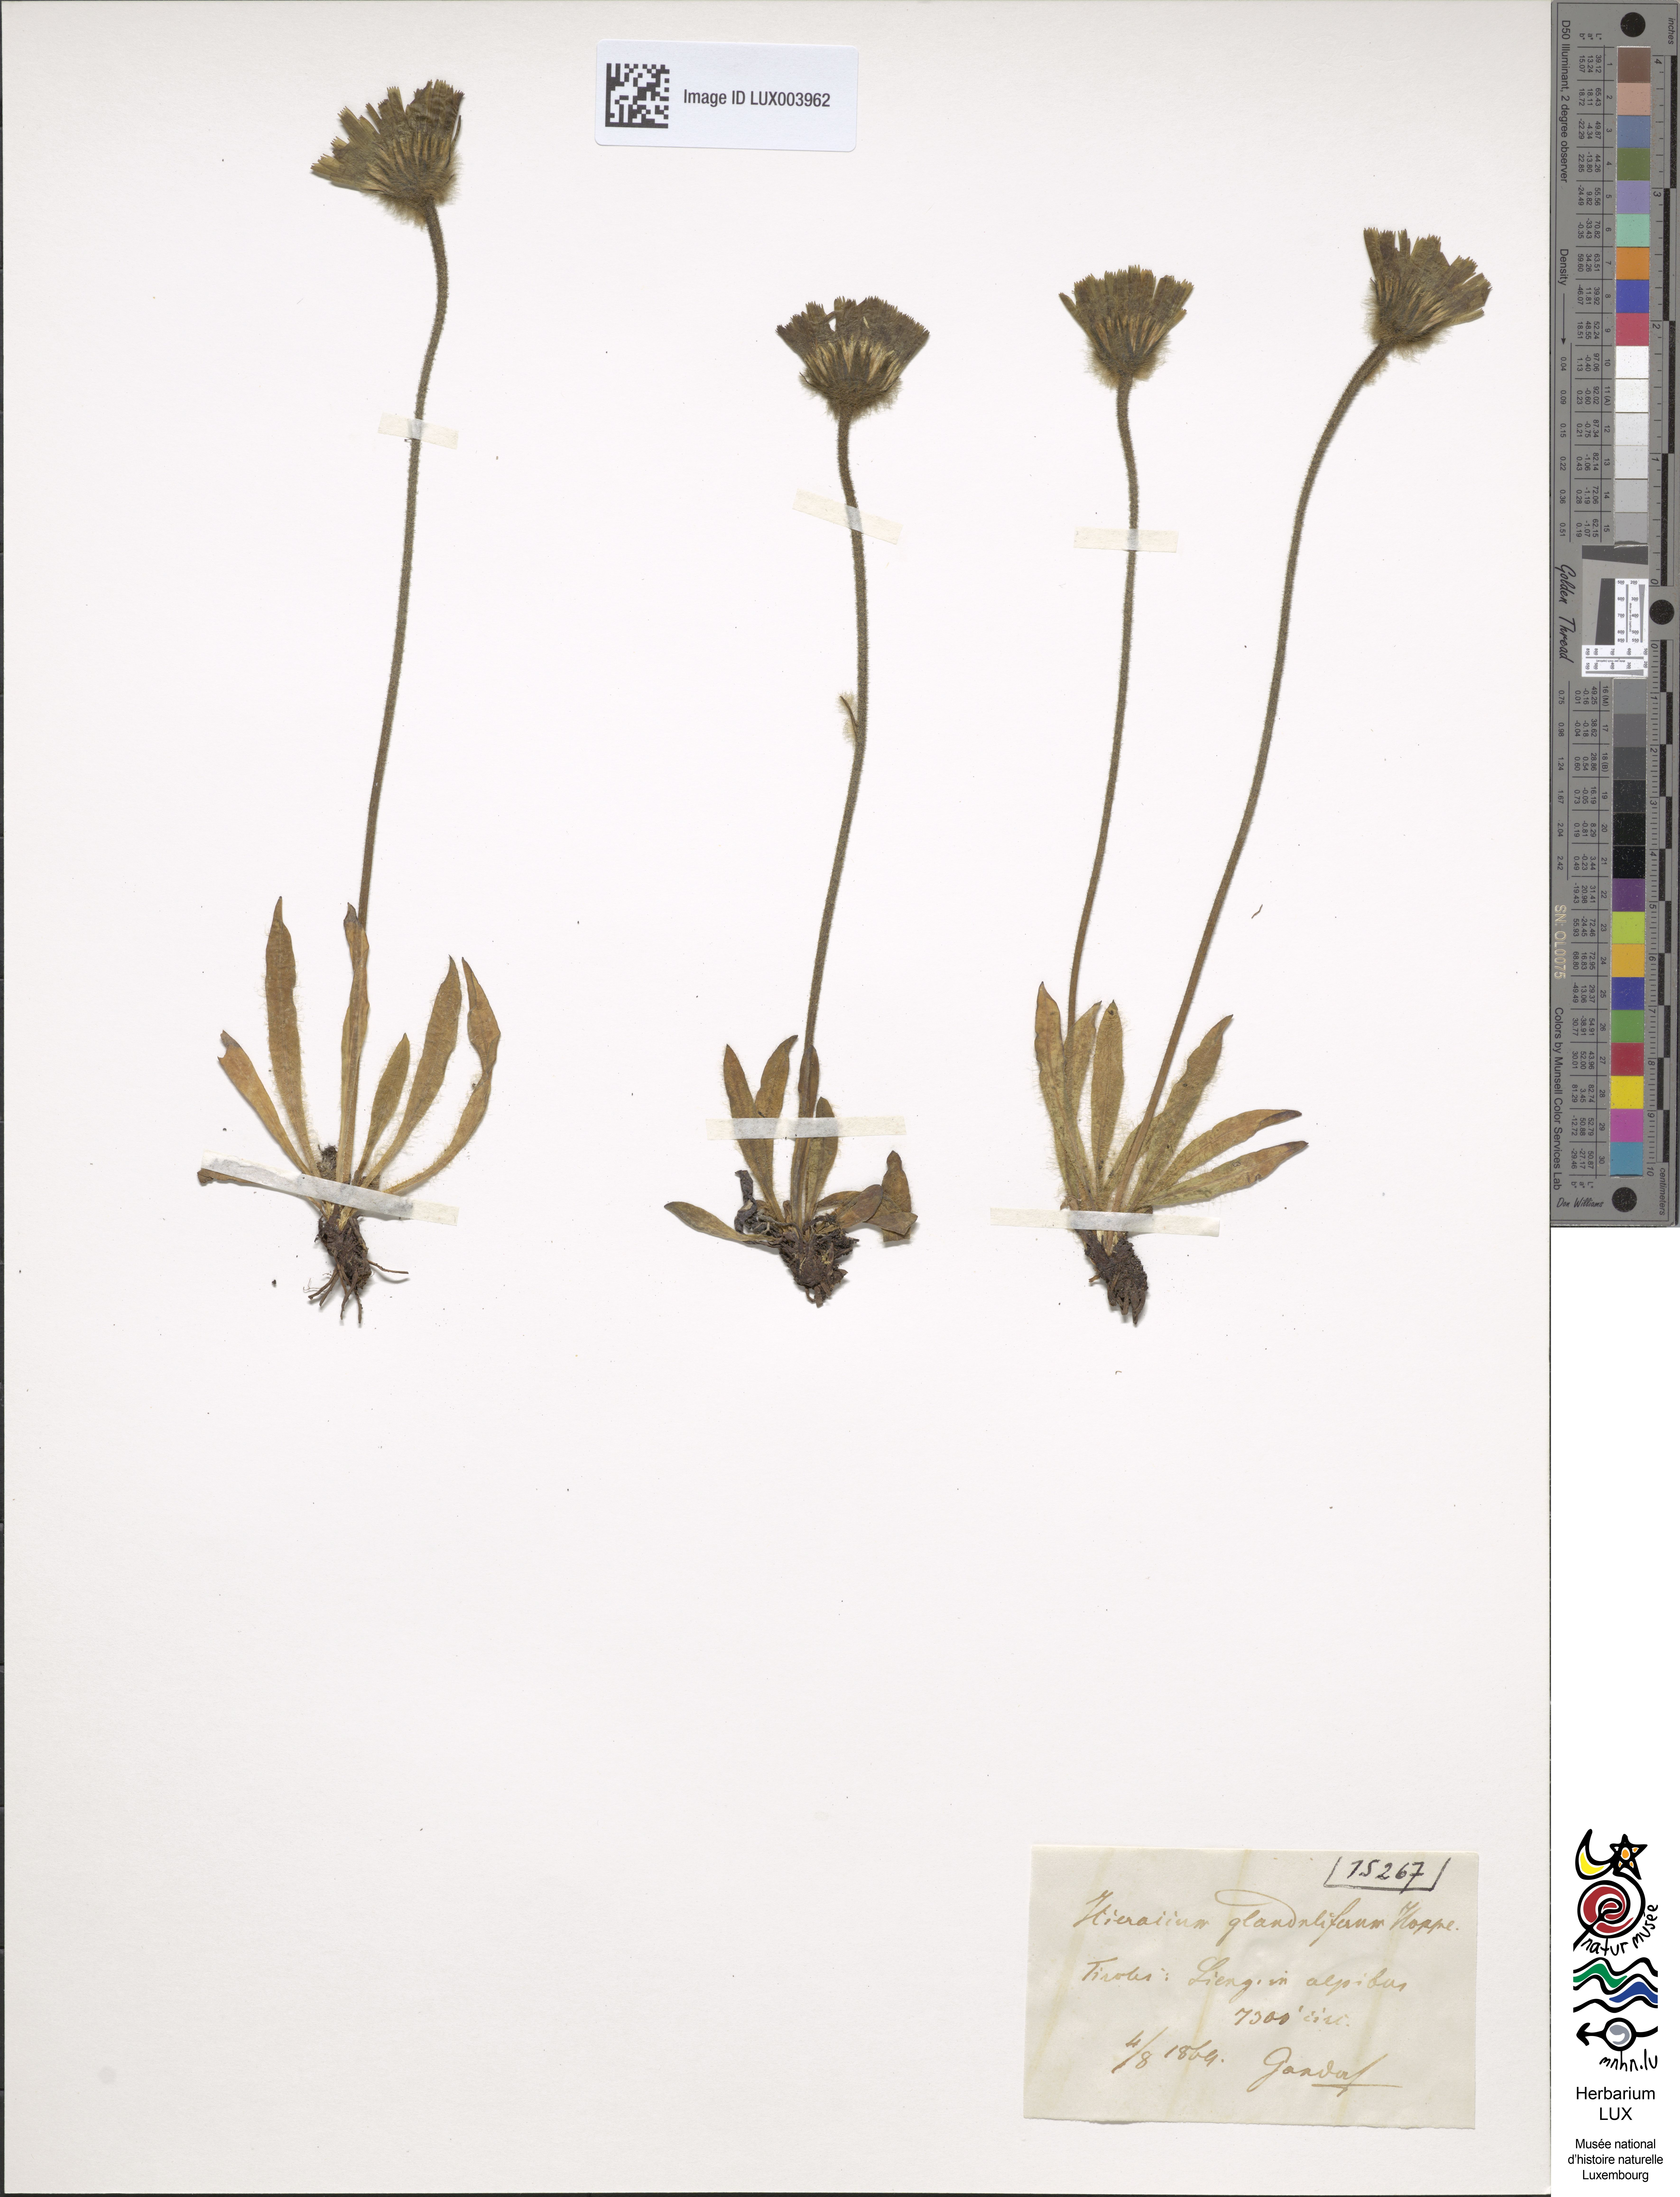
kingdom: Plantae
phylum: Tracheophyta
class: Magnoliopsida
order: Asterales
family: Asteraceae
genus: Hieracium
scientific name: Hieracium piliferum
